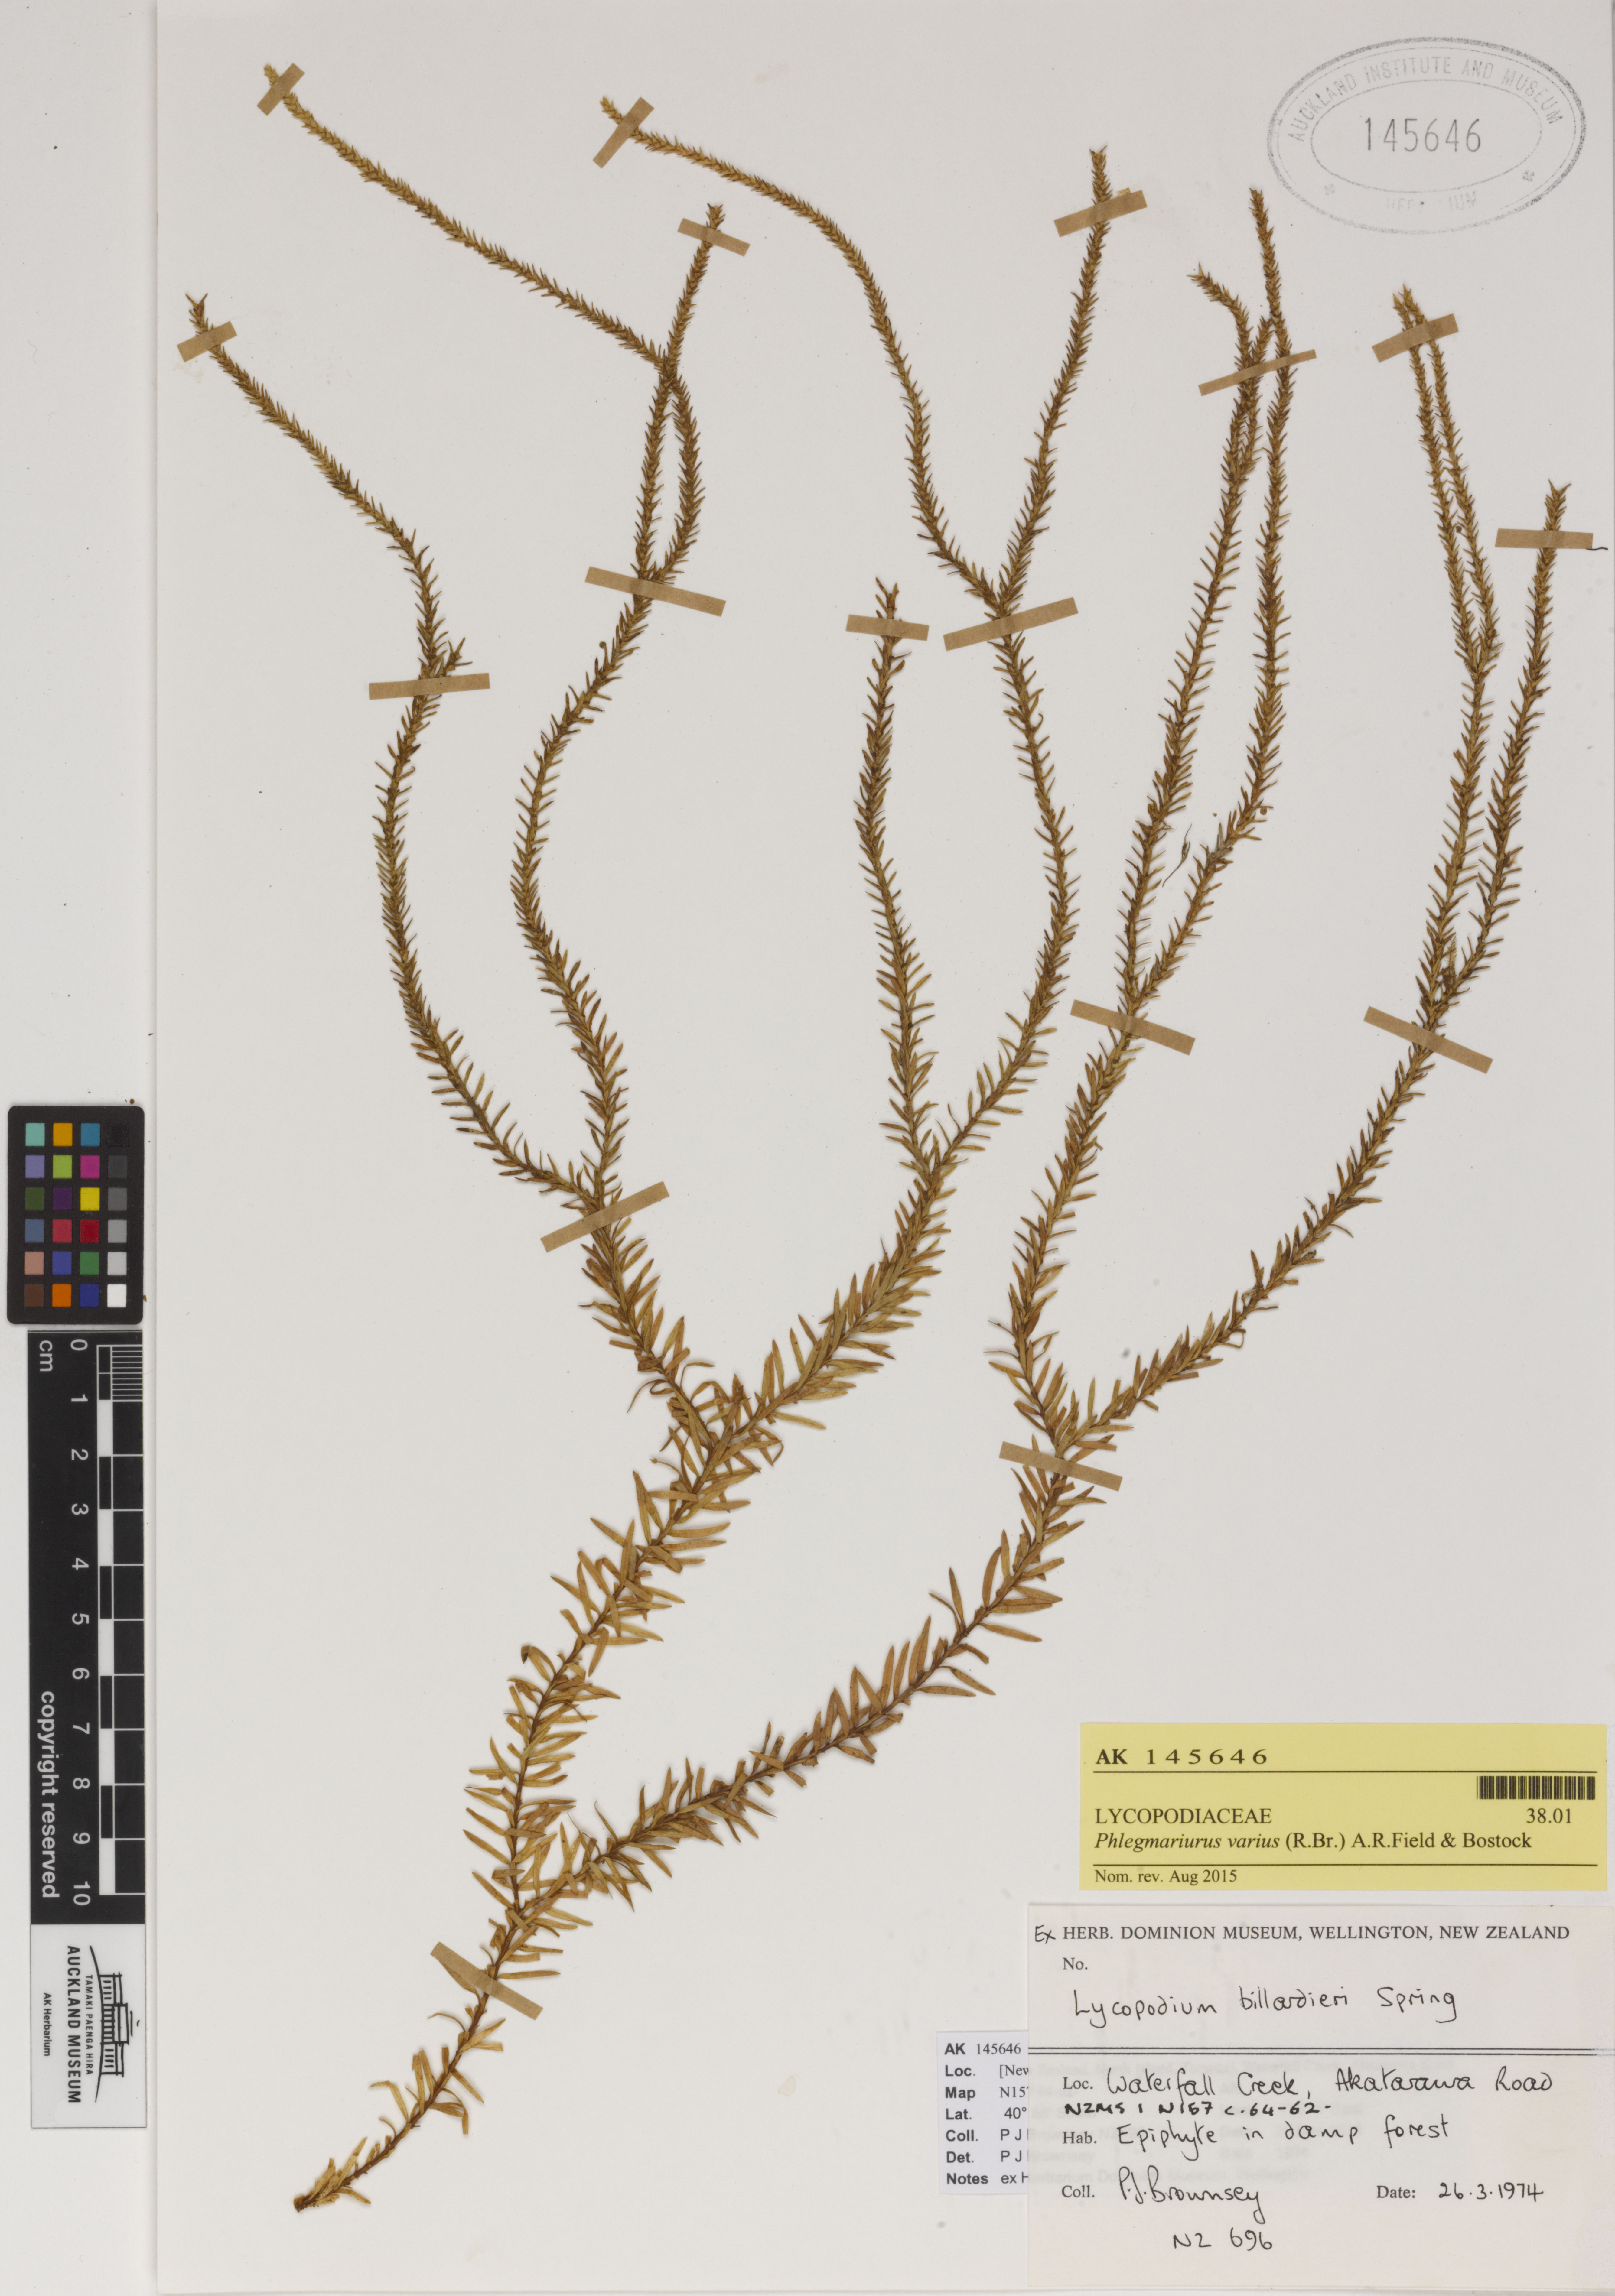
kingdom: Plantae
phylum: Tracheophyta
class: Lycopodiopsida
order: Lycopodiales
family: Lycopodiaceae
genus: Phlegmariurus
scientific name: Phlegmariurus varius
